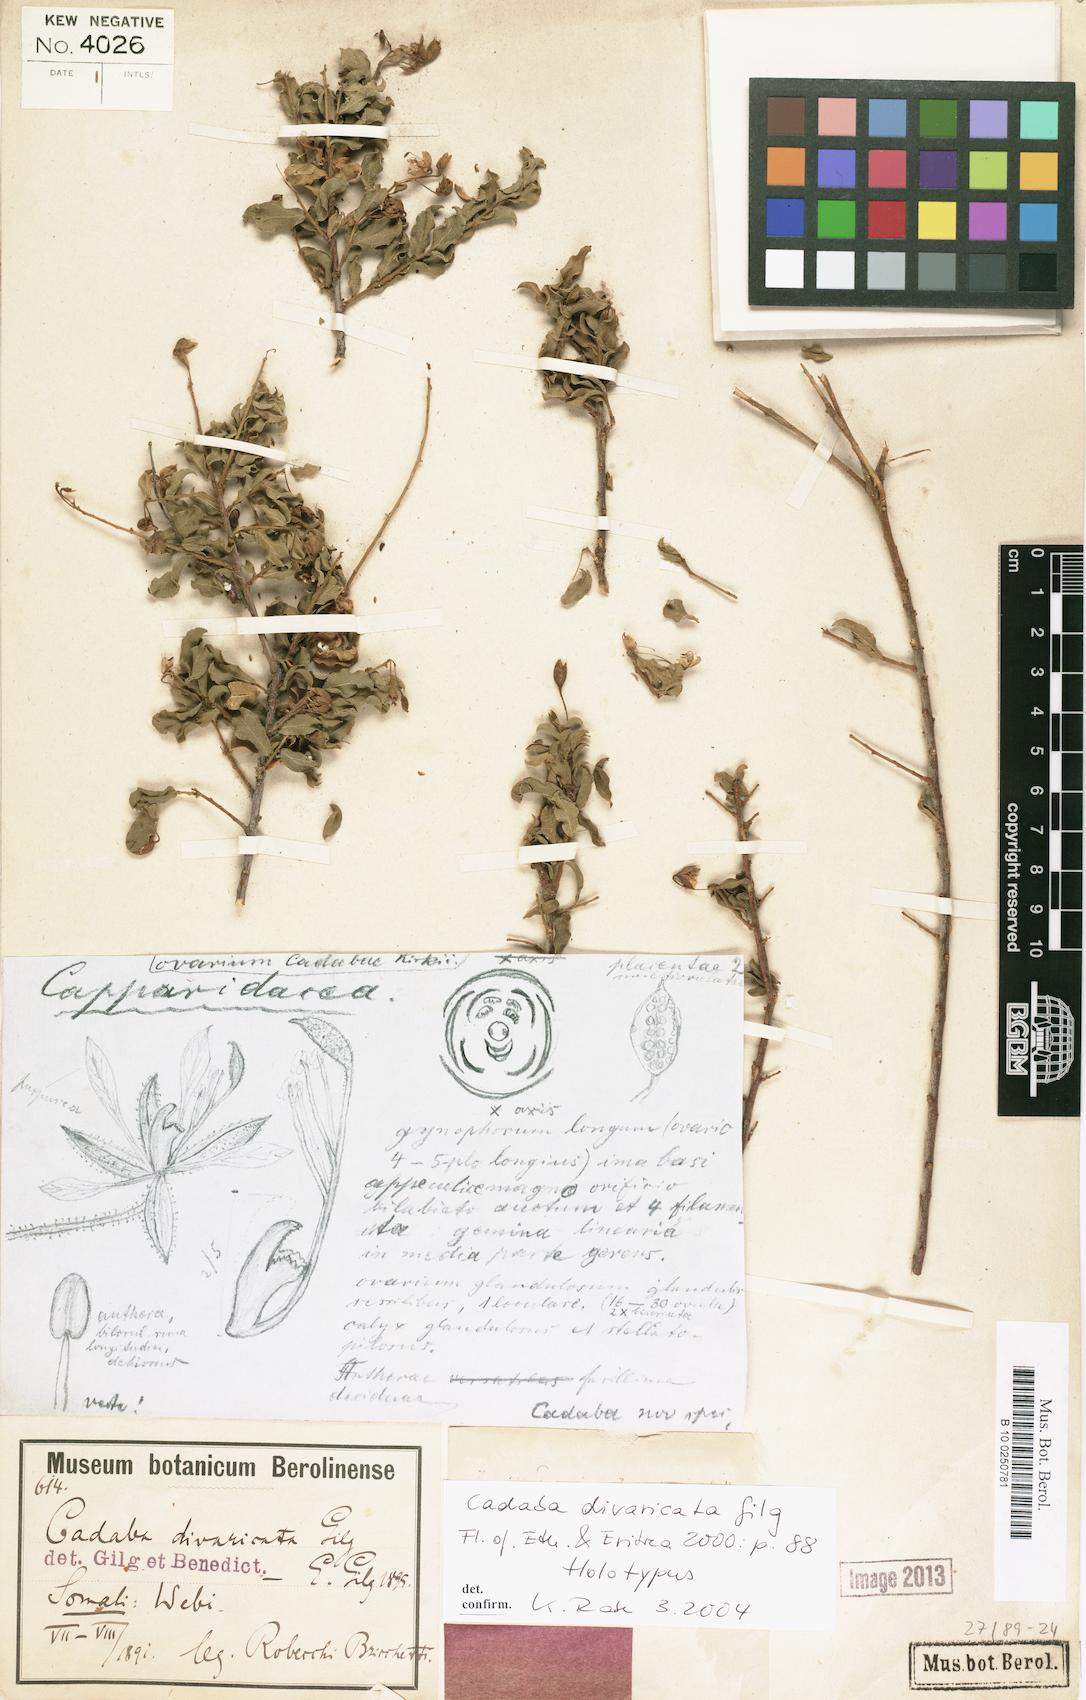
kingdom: Plantae
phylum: Tracheophyta
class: Magnoliopsida
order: Brassicales
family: Capparaceae
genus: Cadaba
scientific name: Cadaba divaricata
